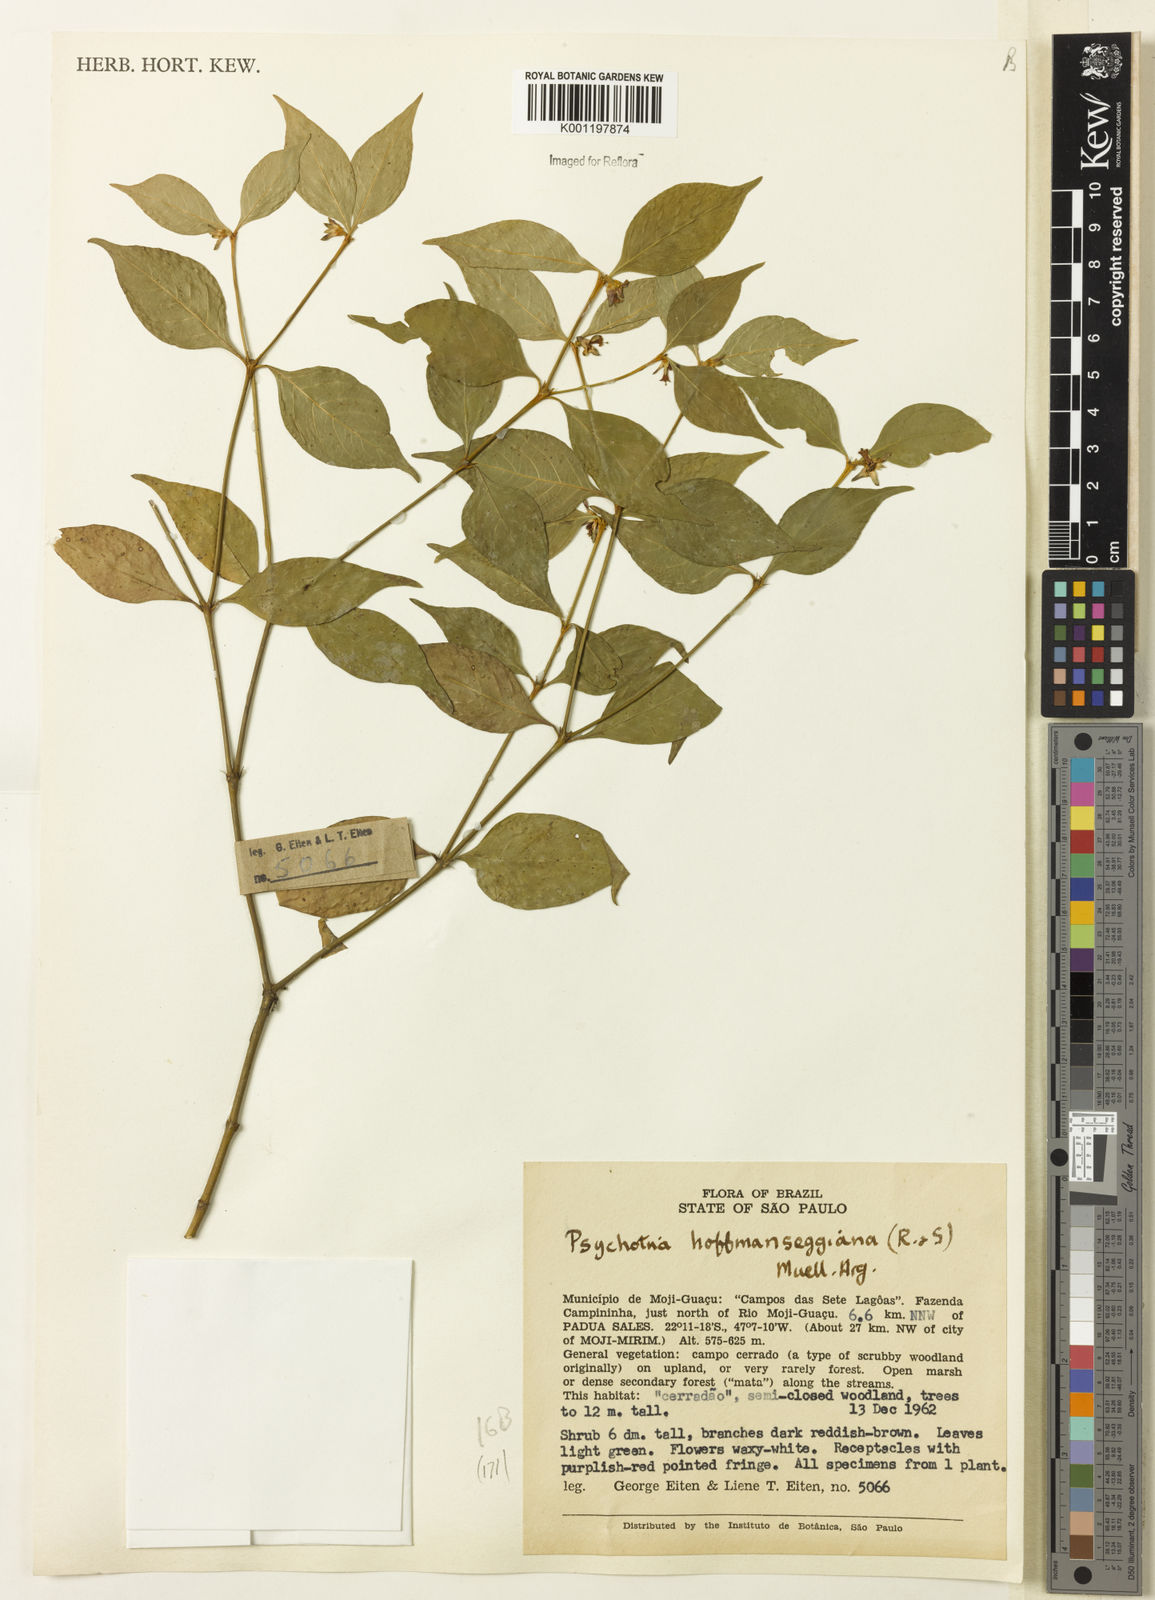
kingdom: Plantae
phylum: Tracheophyta
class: Magnoliopsida
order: Gentianales
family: Rubiaceae
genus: Psychotria
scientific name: Psychotria
